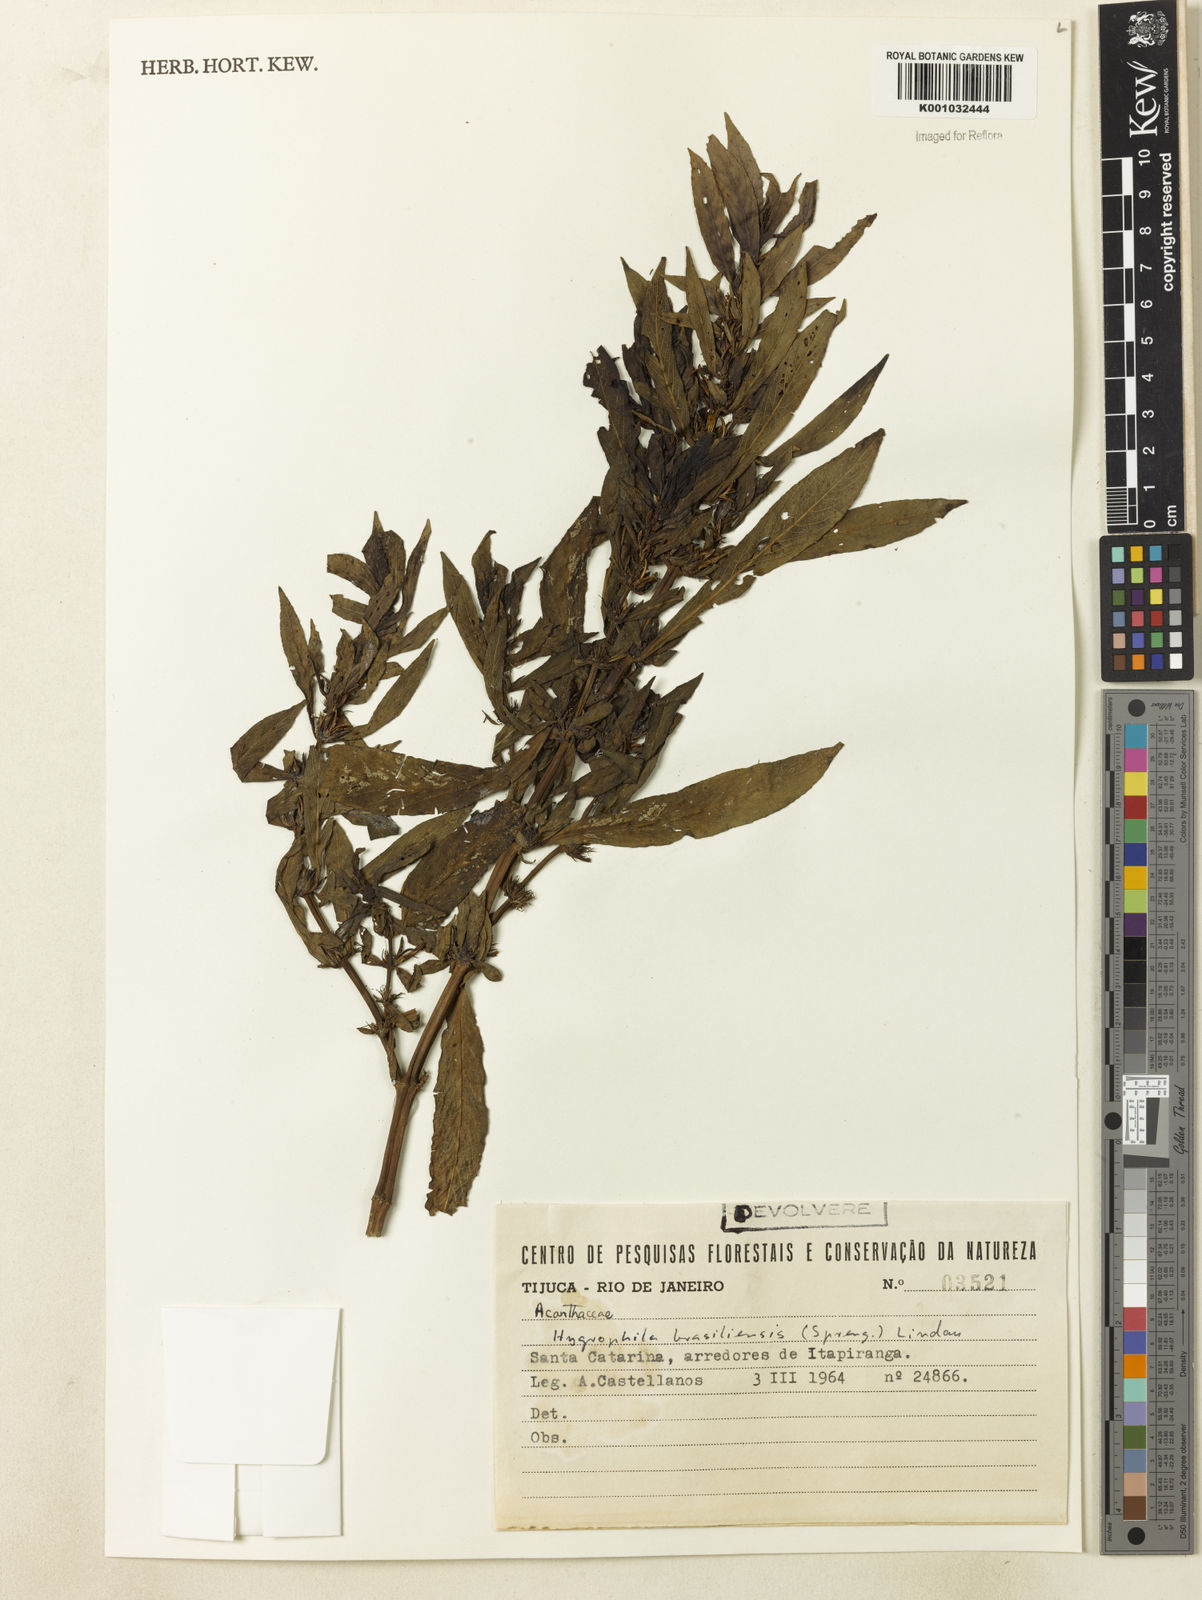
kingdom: Plantae
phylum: Tracheophyta
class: Magnoliopsida
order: Lamiales
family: Acanthaceae
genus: Hygrophila
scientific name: Hygrophila costata
